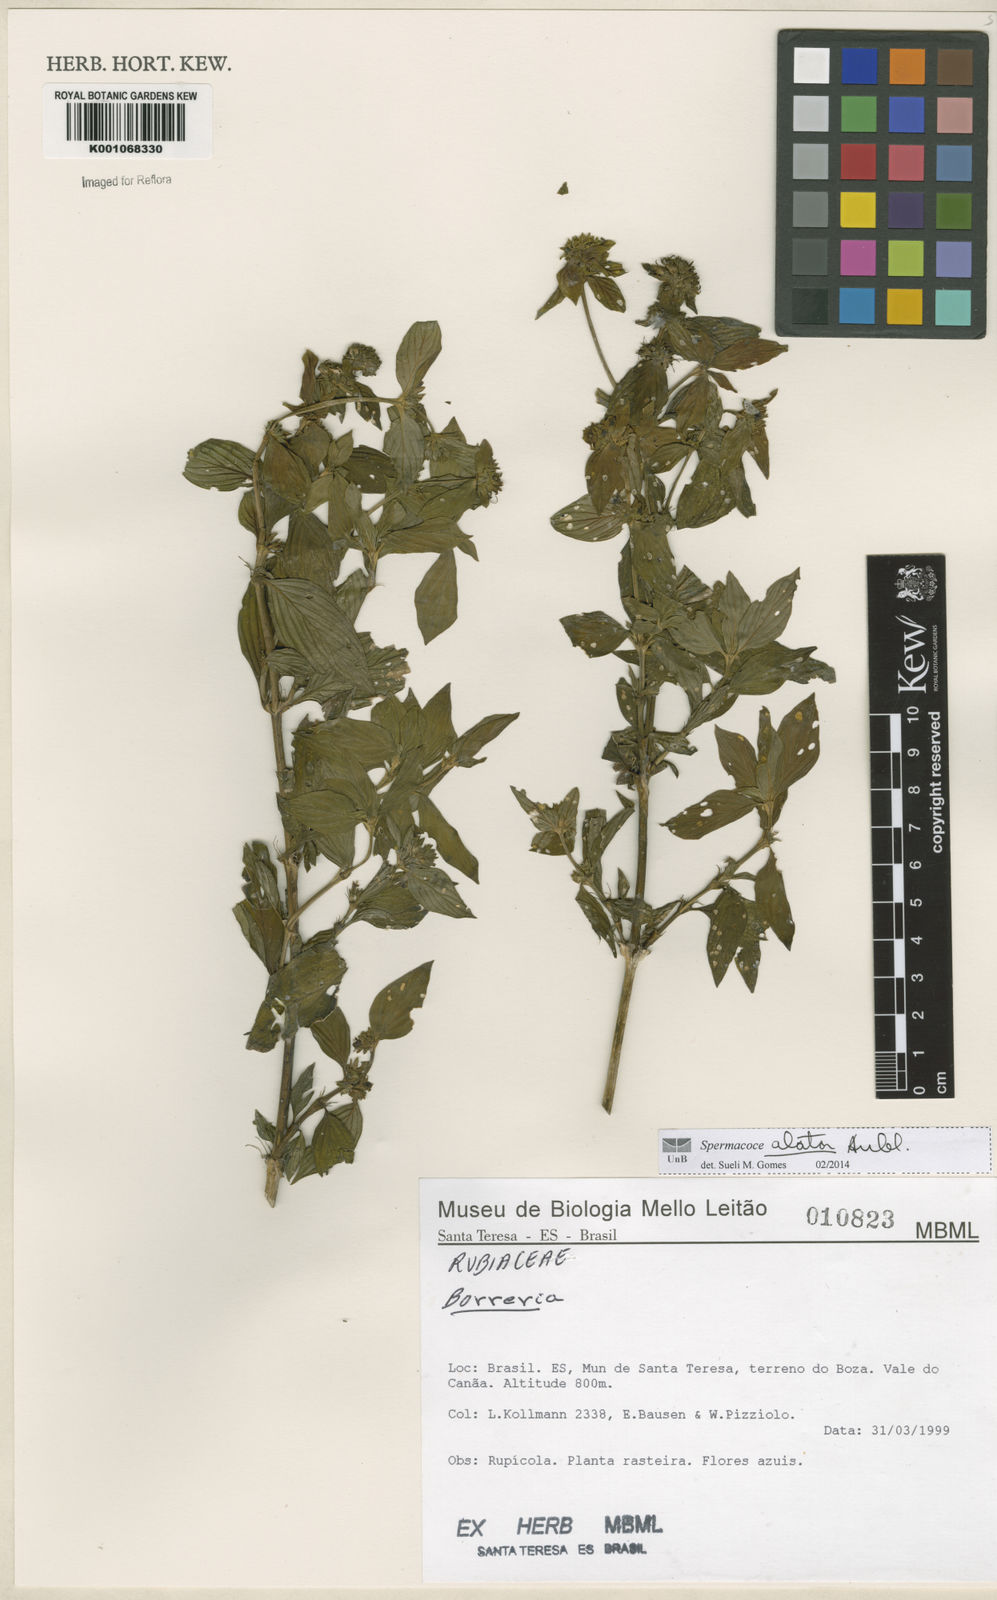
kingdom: Plantae
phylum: Tracheophyta
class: Magnoliopsida
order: Gentianales
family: Rubiaceae
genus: Spermacoce
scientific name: Spermacoce
